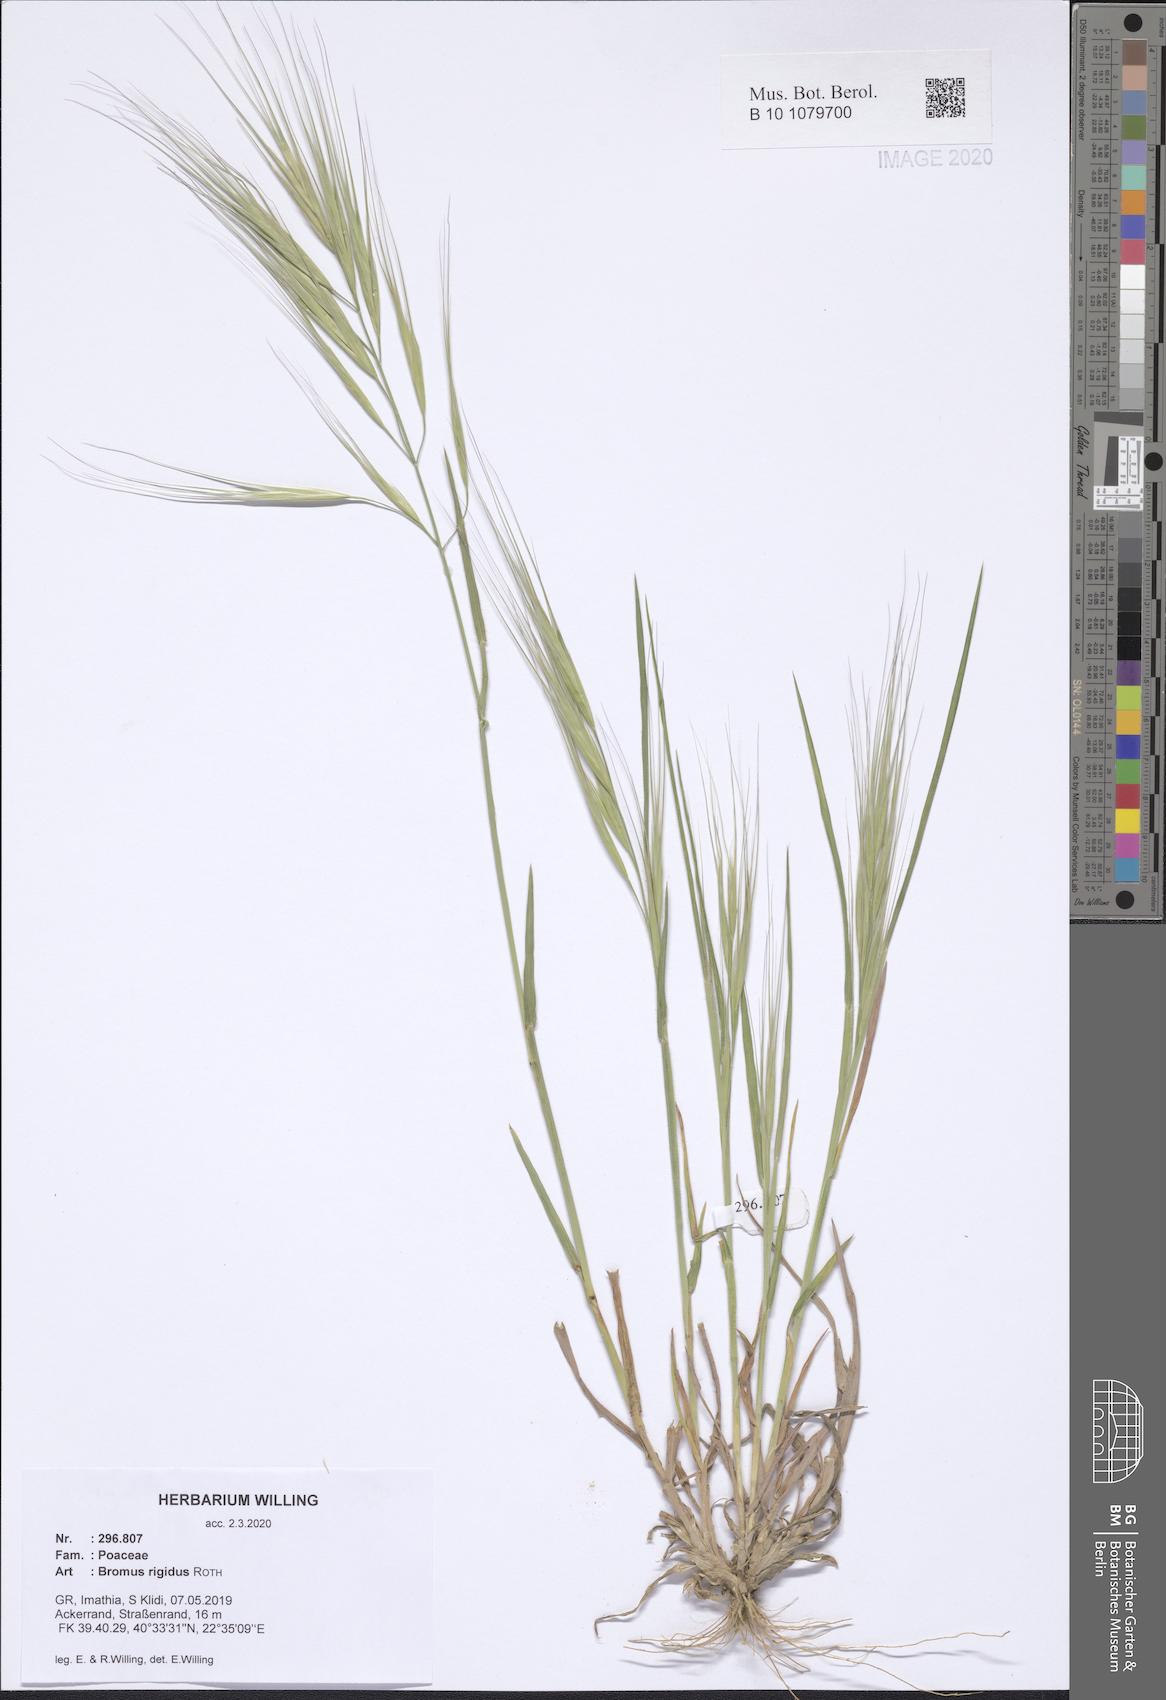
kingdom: Plantae
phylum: Tracheophyta
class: Liliopsida
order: Poales
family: Poaceae
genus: Bromus
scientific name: Bromus rigidus
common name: Ripgut brome
